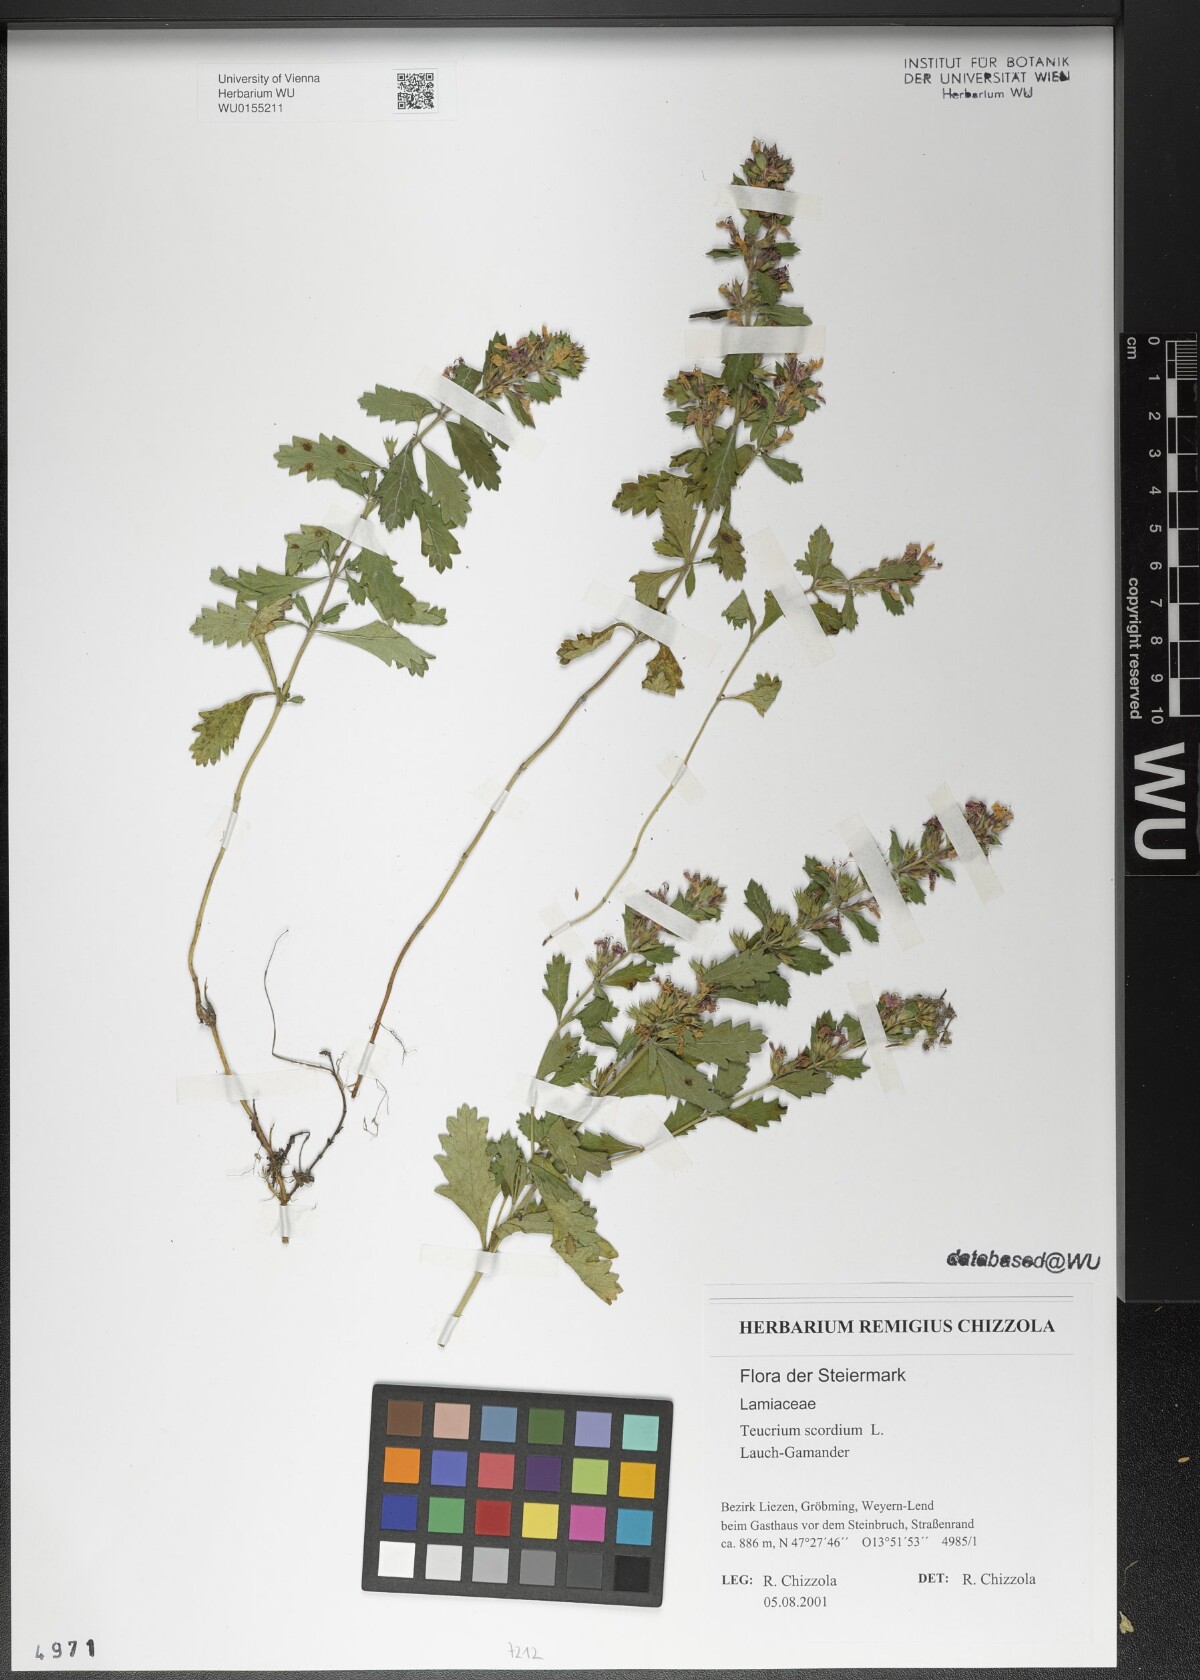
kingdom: Plantae
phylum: Tracheophyta
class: Magnoliopsida
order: Lamiales
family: Lamiaceae
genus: Teucrium
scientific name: Teucrium scordium
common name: Water germander
